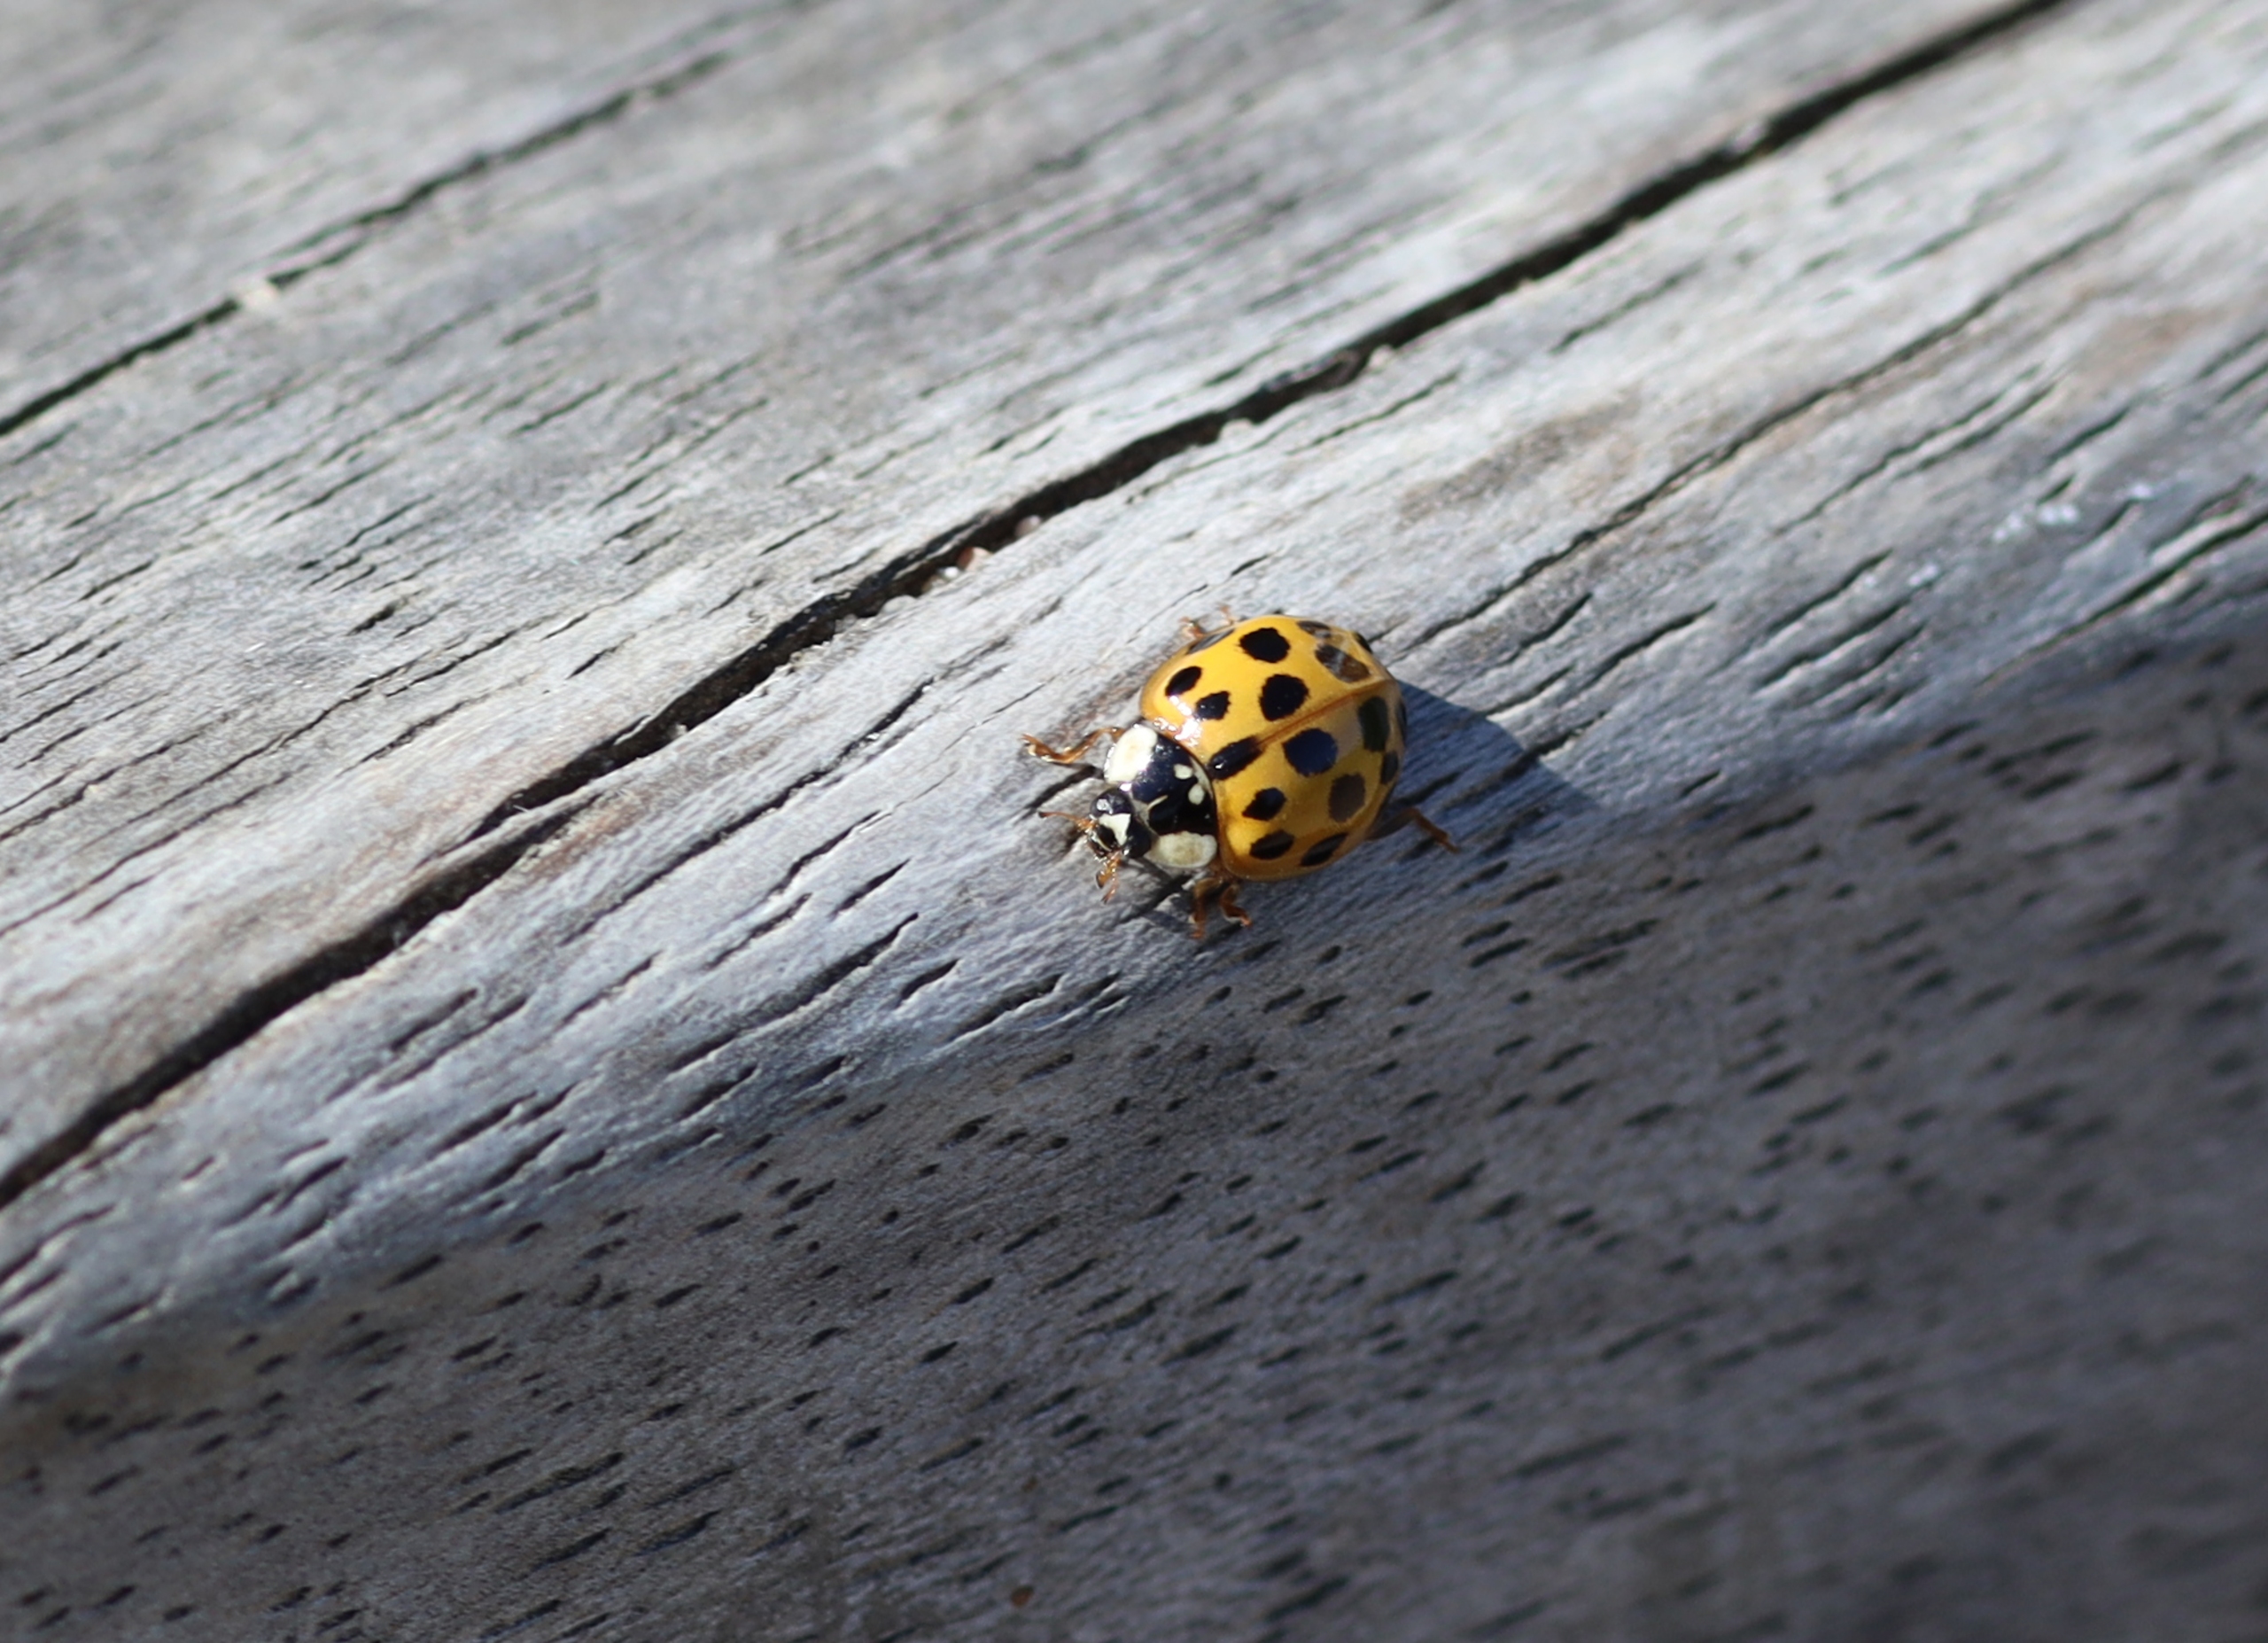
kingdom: Animalia
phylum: Arthropoda
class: Insecta
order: Coleoptera
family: Coccinellidae
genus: Psyllobora
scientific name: Psyllobora vigintiduopunctata
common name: Toogtyveplettet mariehøne
